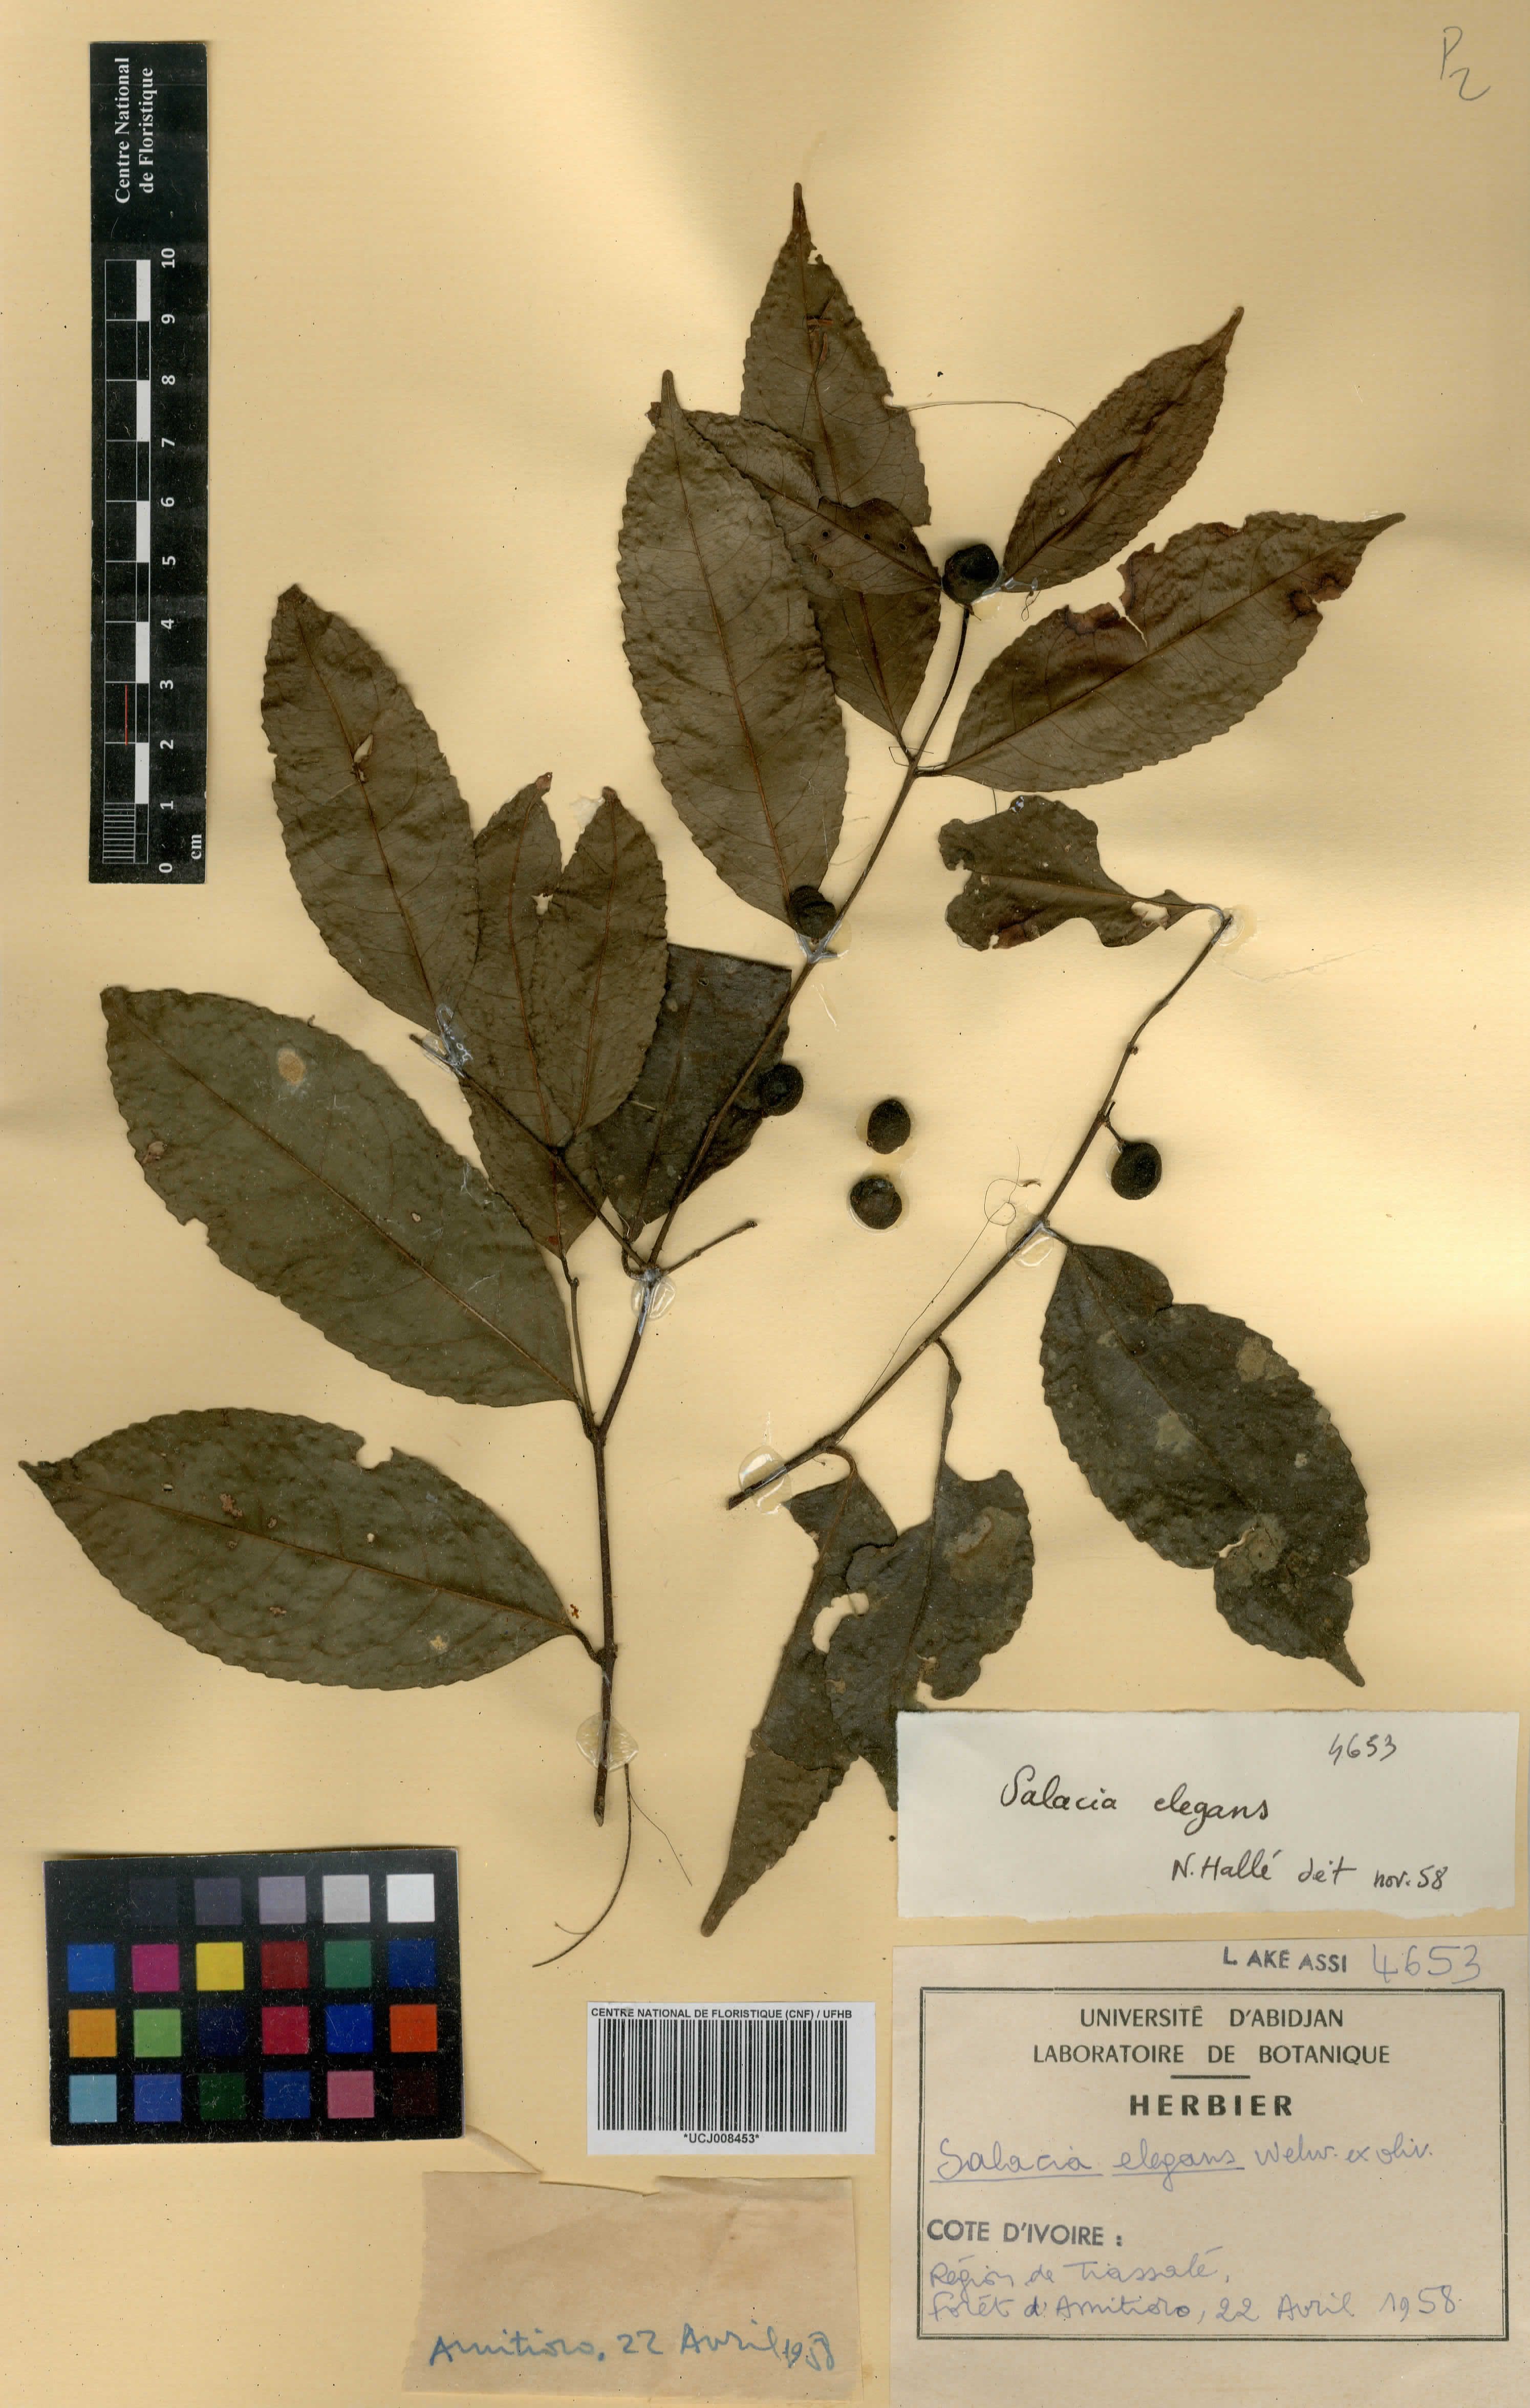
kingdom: Plantae
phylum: Tracheophyta
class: Magnoliopsida
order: Celastrales
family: Celastraceae
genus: Salacia
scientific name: Salacia elegans
